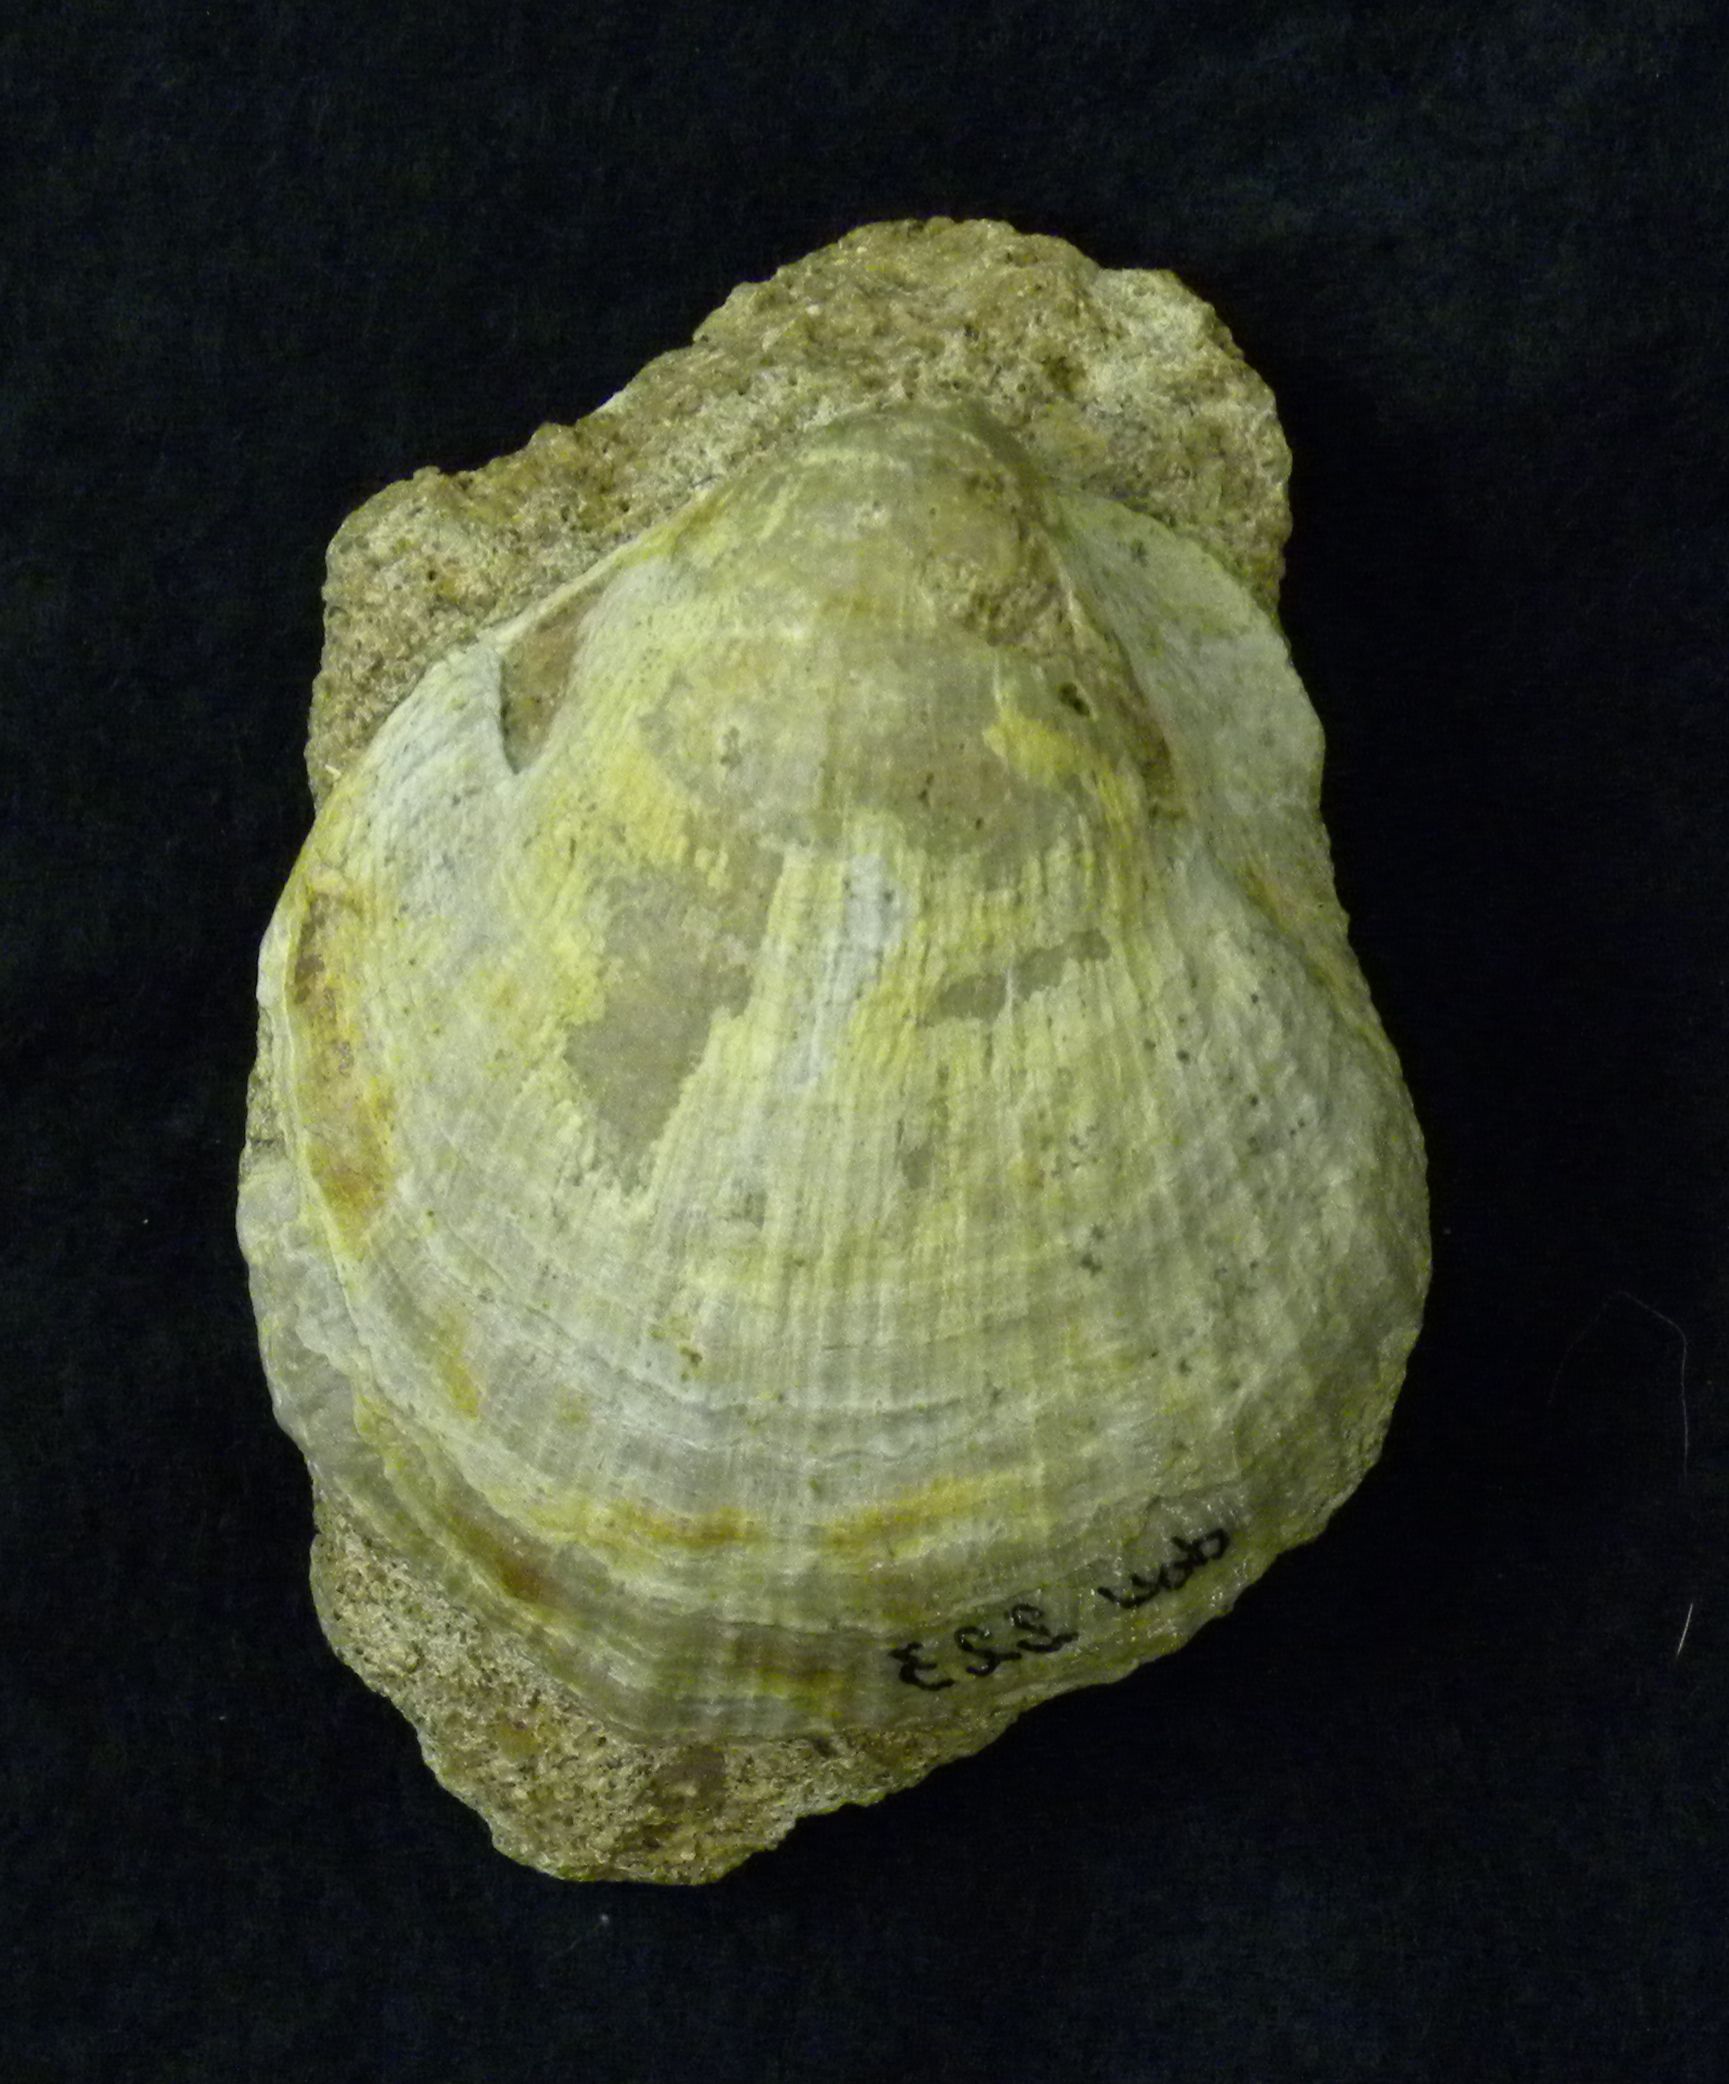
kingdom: Animalia
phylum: Mollusca
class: Bivalvia
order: Pectinida
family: Pectinidae
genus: Eopecten
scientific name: Eopecten
